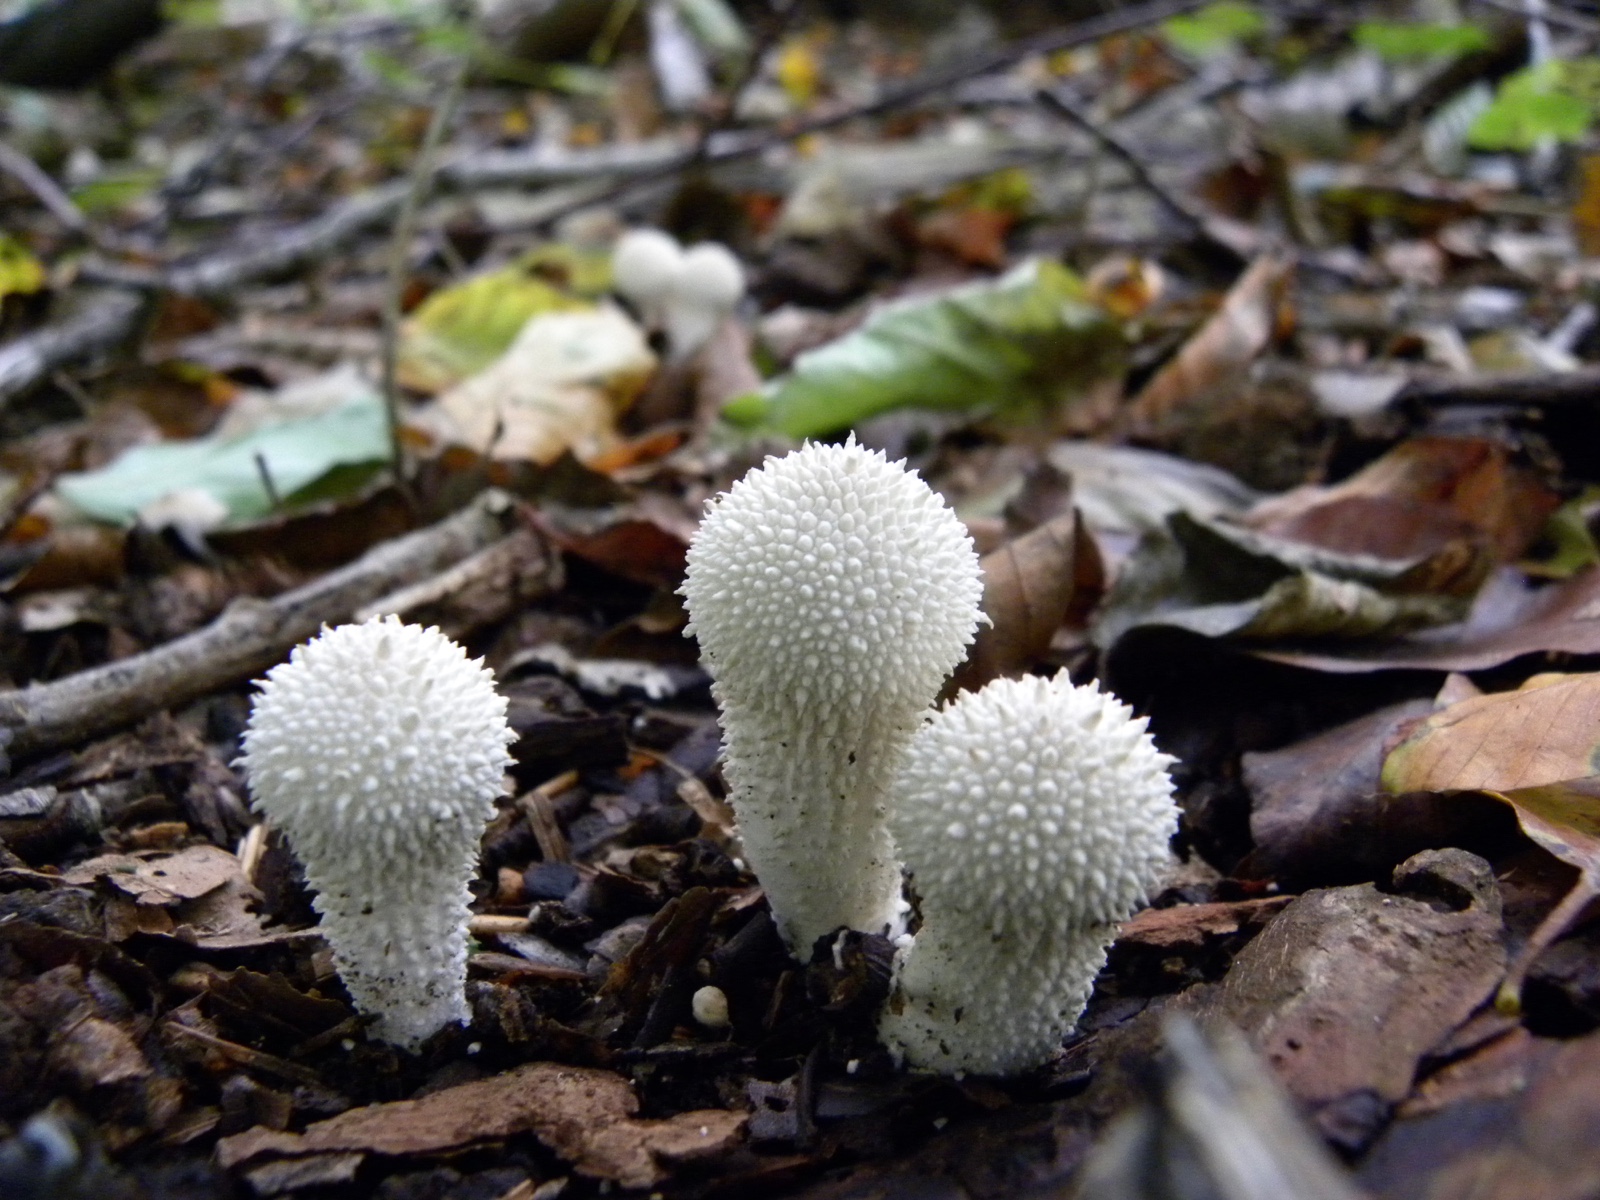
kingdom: Fungi
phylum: Basidiomycota
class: Agaricomycetes
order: Agaricales
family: Lycoperdaceae
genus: Lycoperdon
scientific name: Lycoperdon perlatum
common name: krystal-støvbold
